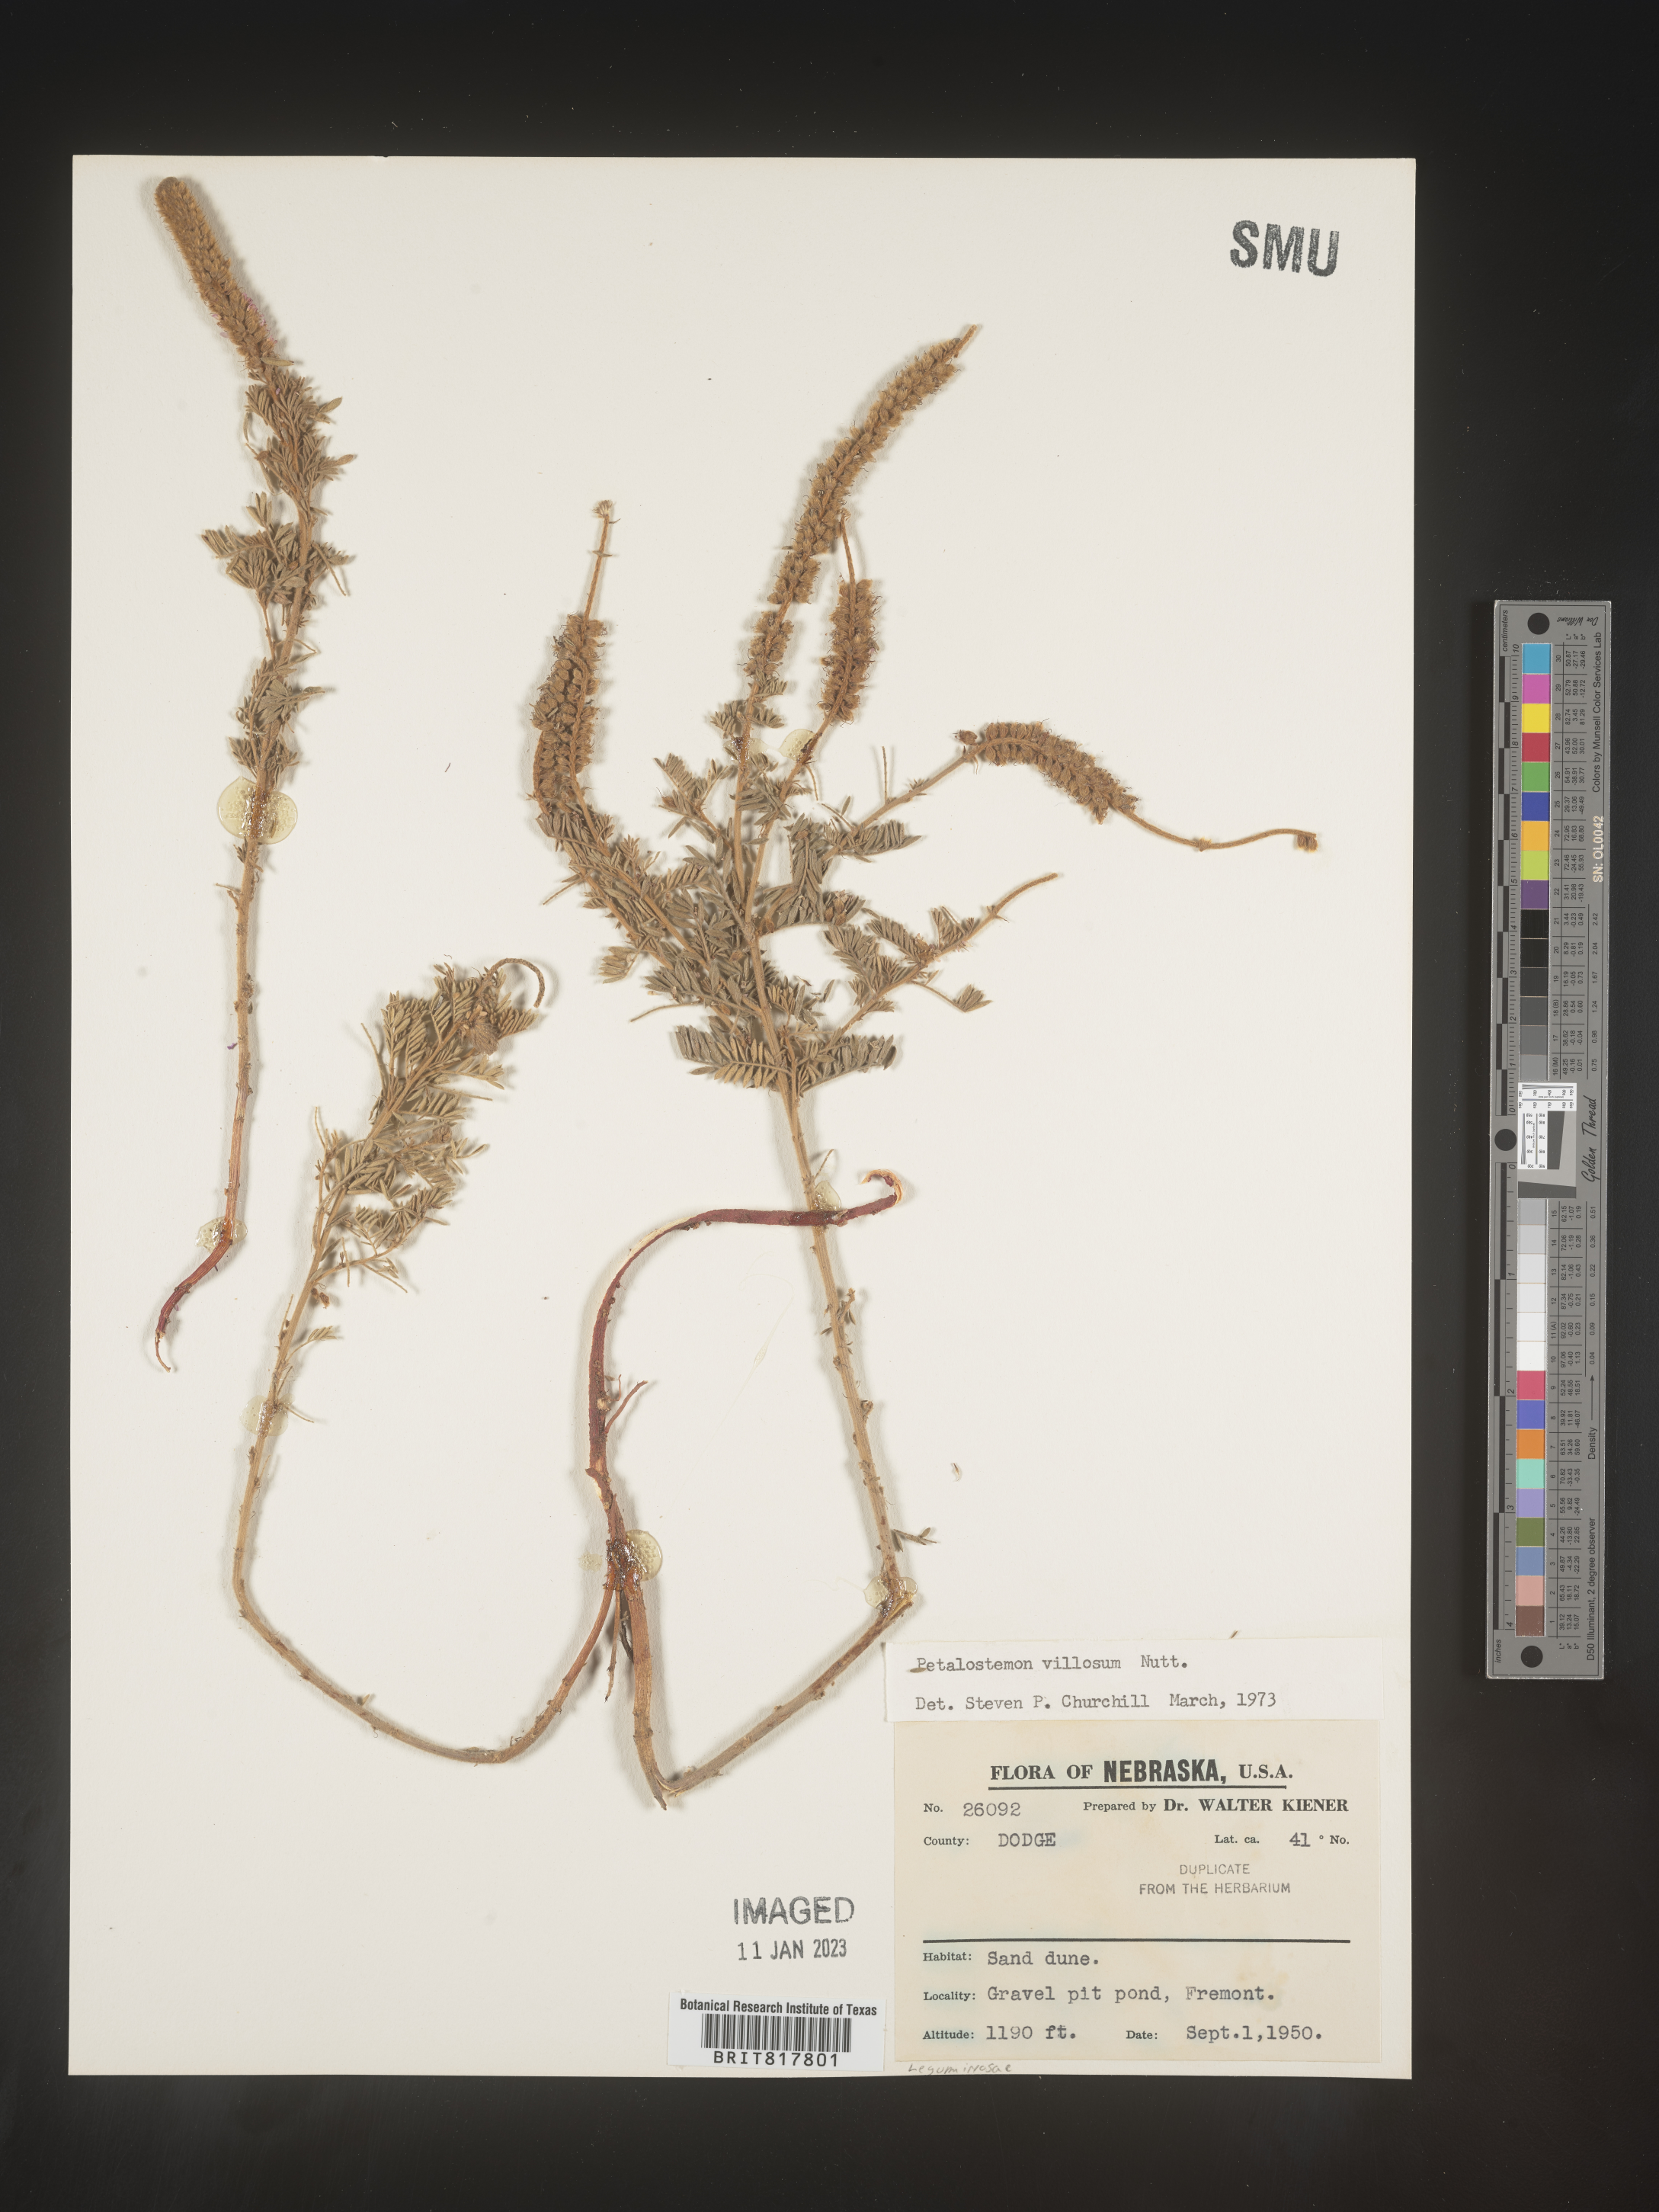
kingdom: Plantae
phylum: Tracheophyta
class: Magnoliopsida
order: Fabales
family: Fabaceae
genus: Dalea
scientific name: Dalea villosa
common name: Silky prairie-clover
